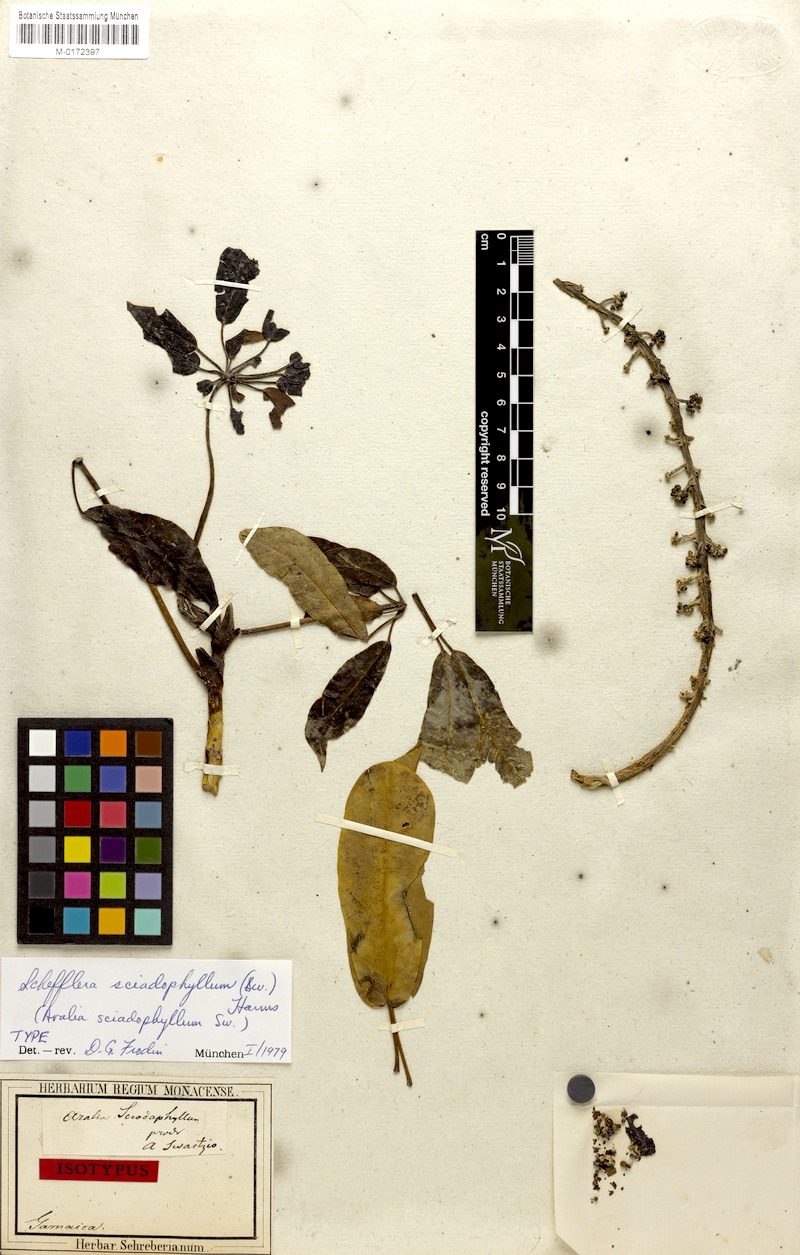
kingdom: Plantae
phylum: Tracheophyta
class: Magnoliopsida
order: Apiales
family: Araliaceae
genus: Sciodaphyllum
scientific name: Sciodaphyllum brownei
